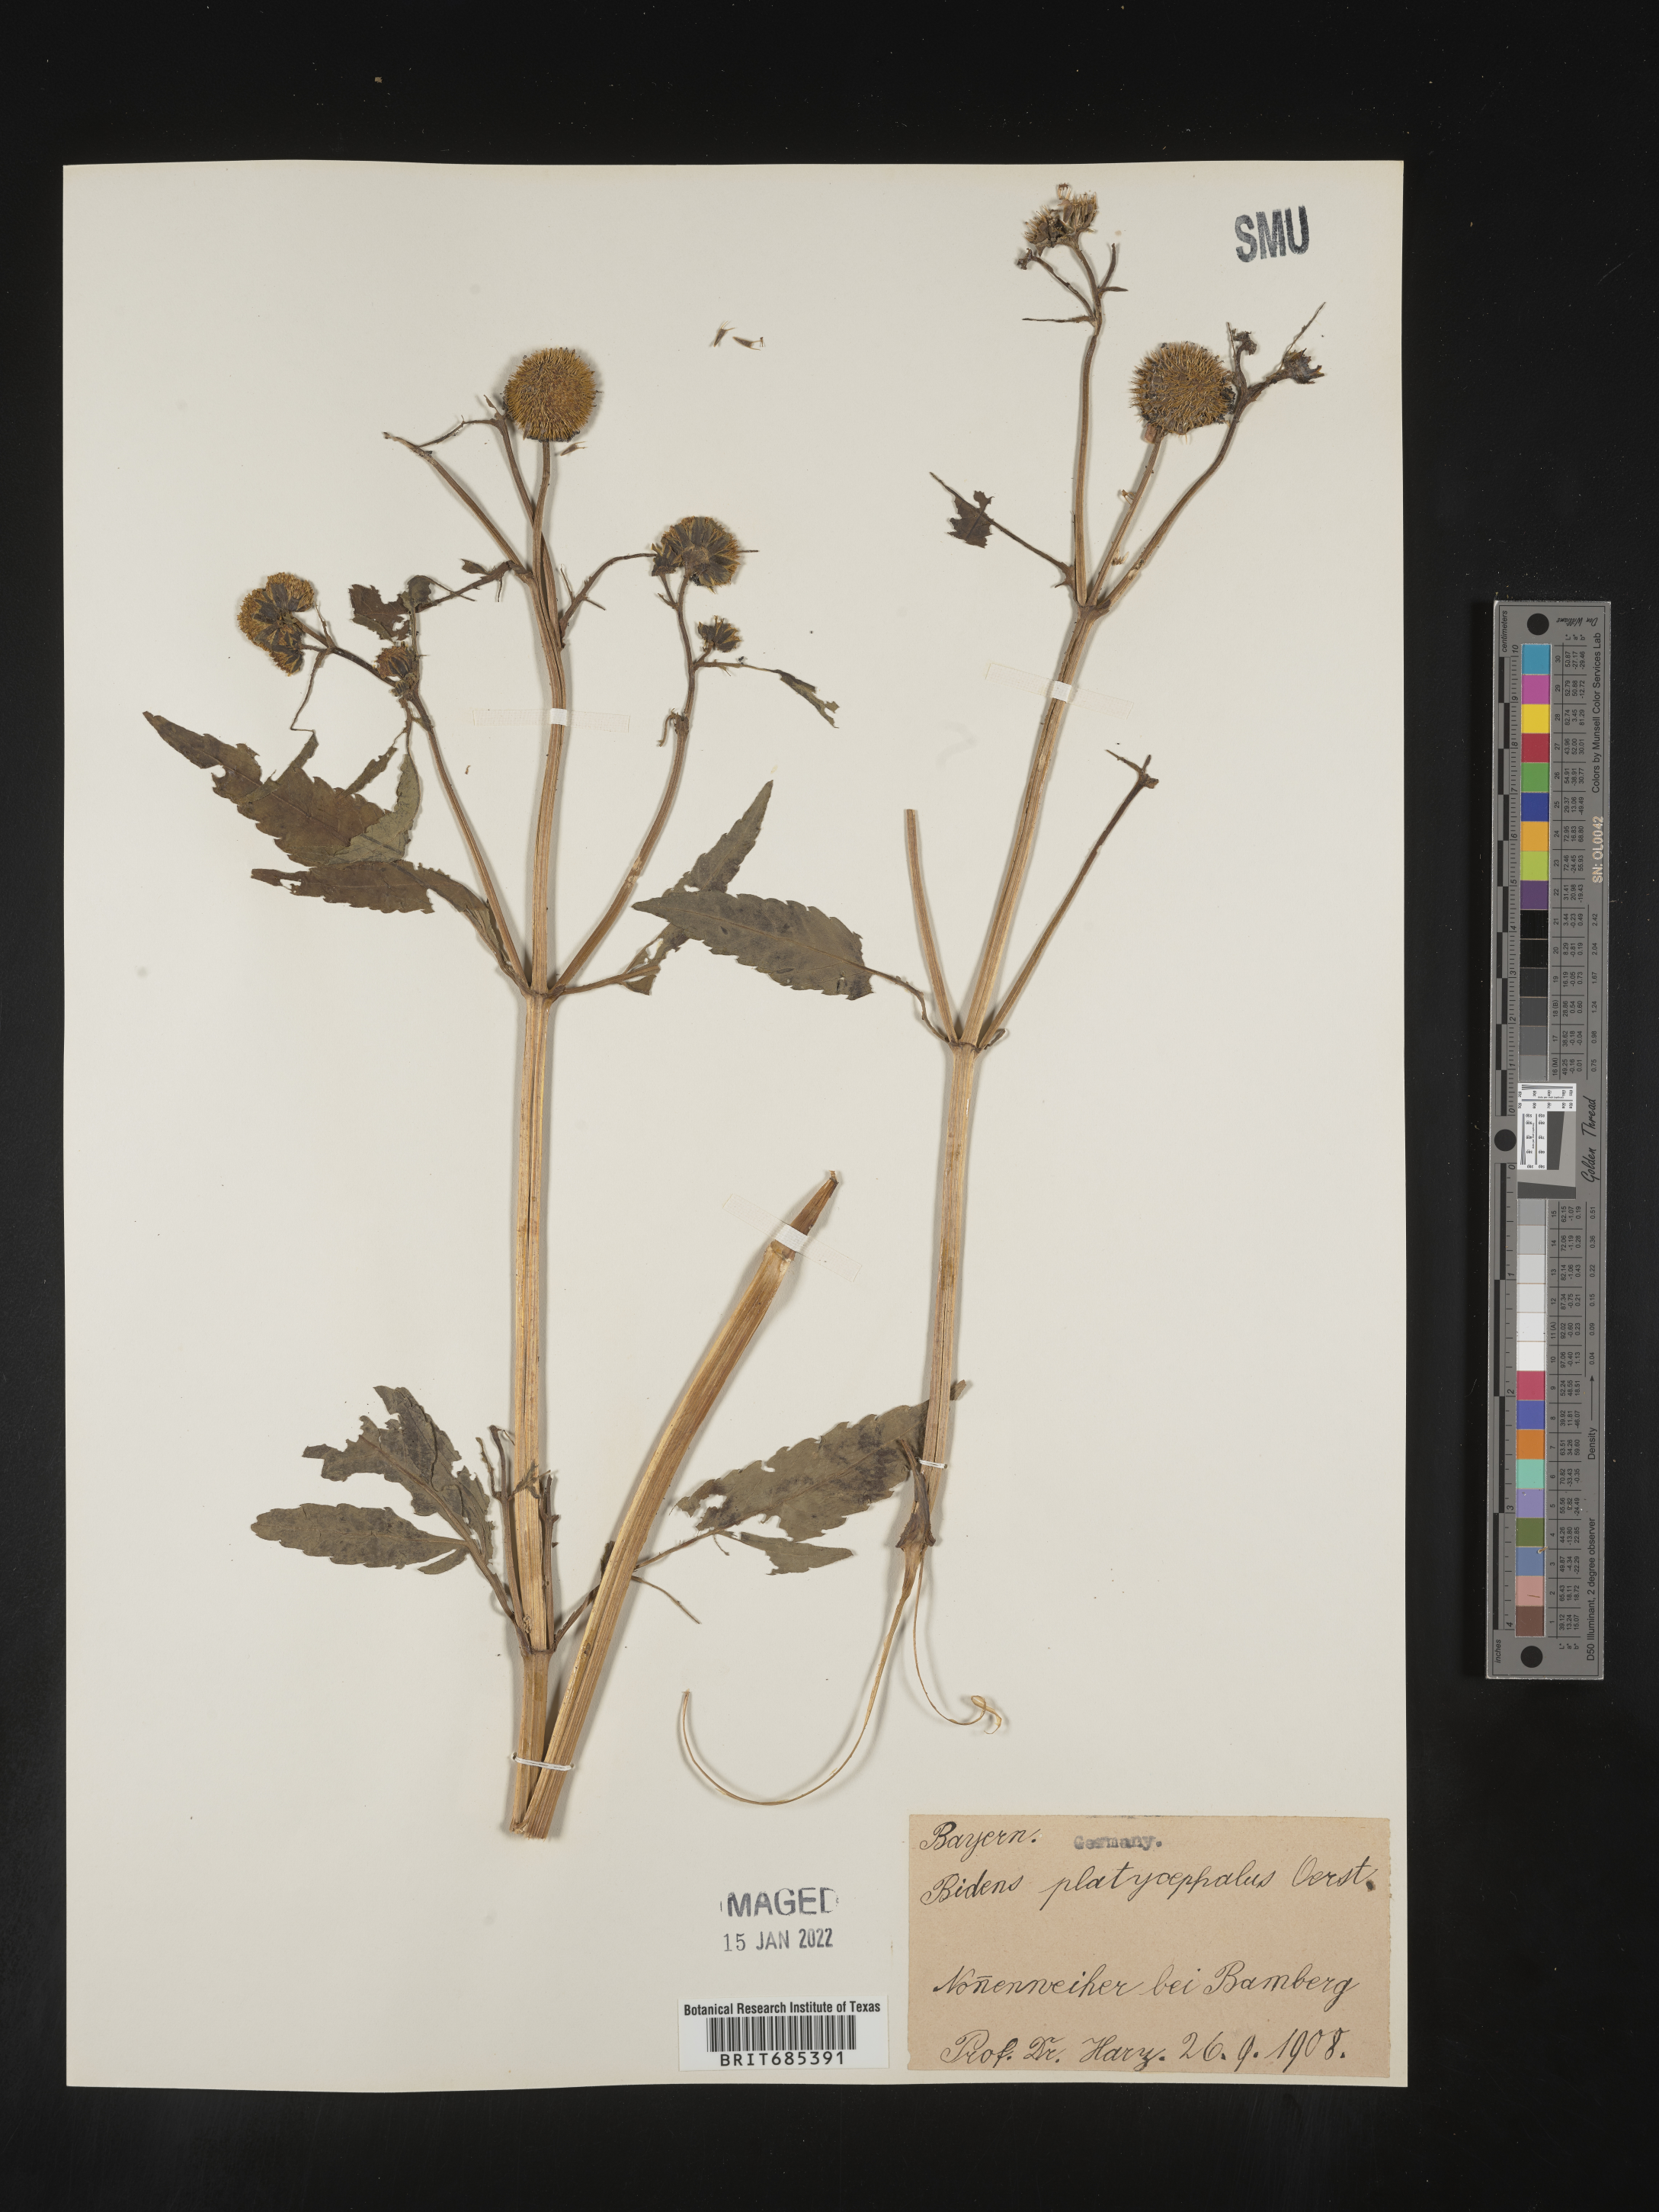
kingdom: Plantae
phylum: Tracheophyta
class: Magnoliopsida
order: Asterales
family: Asteraceae
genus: Bidens
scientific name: Bidens
